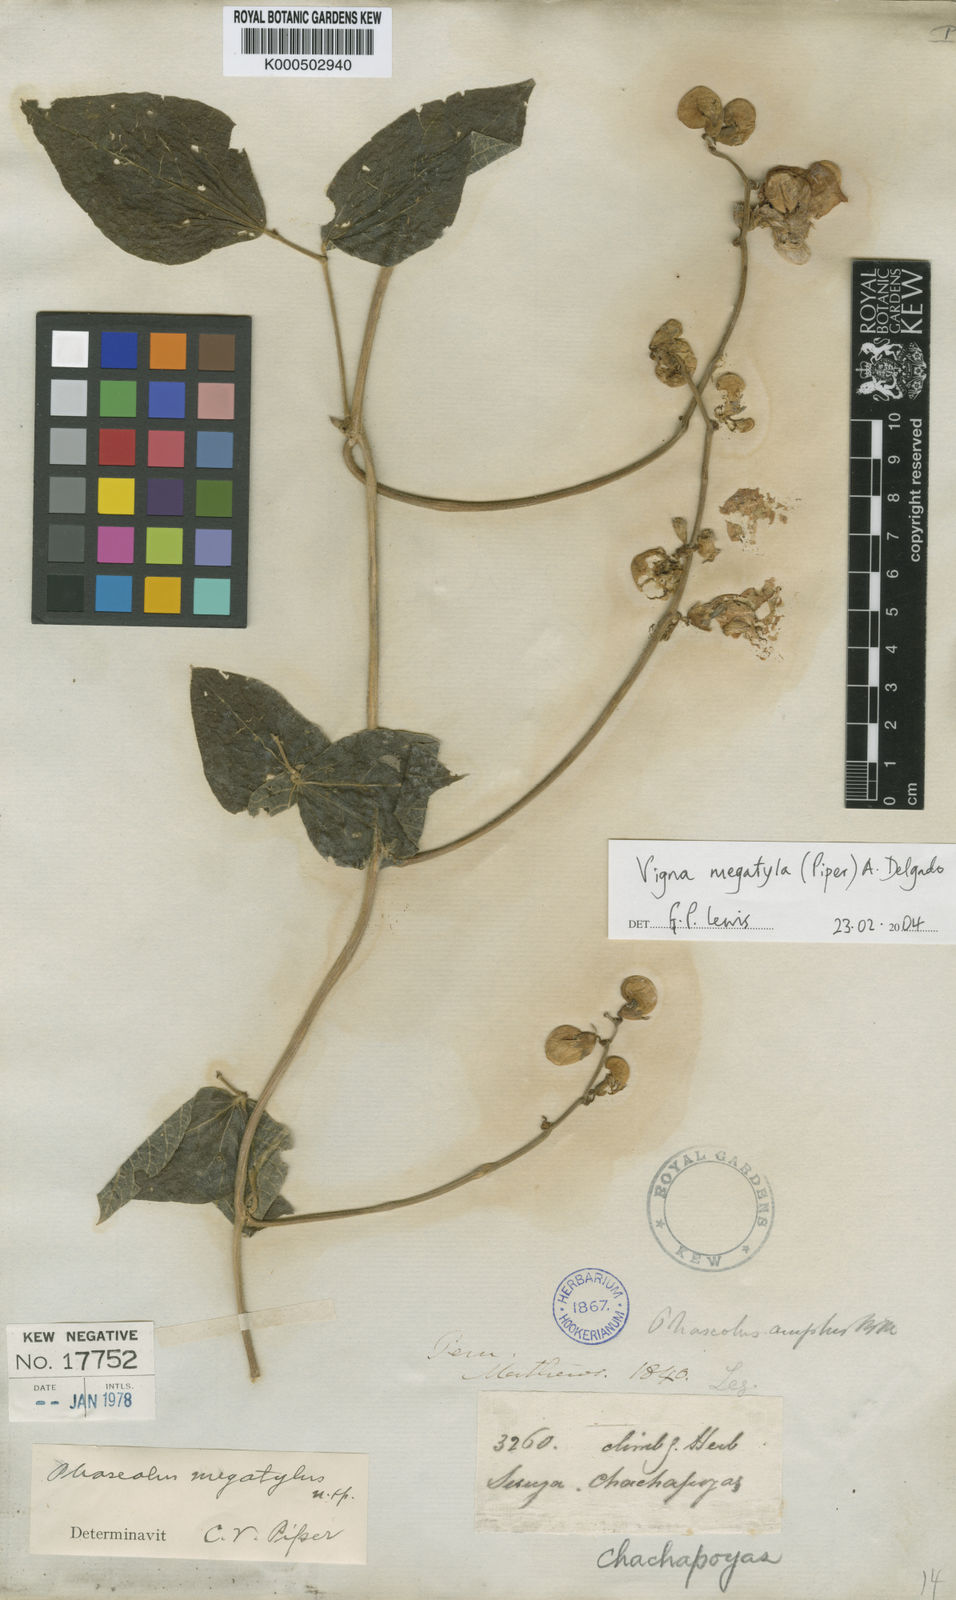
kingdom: Plantae
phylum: Tracheophyta
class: Magnoliopsida
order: Fabales
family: Fabaceae
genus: Sigmoidotropis
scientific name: Sigmoidotropis megatyla
